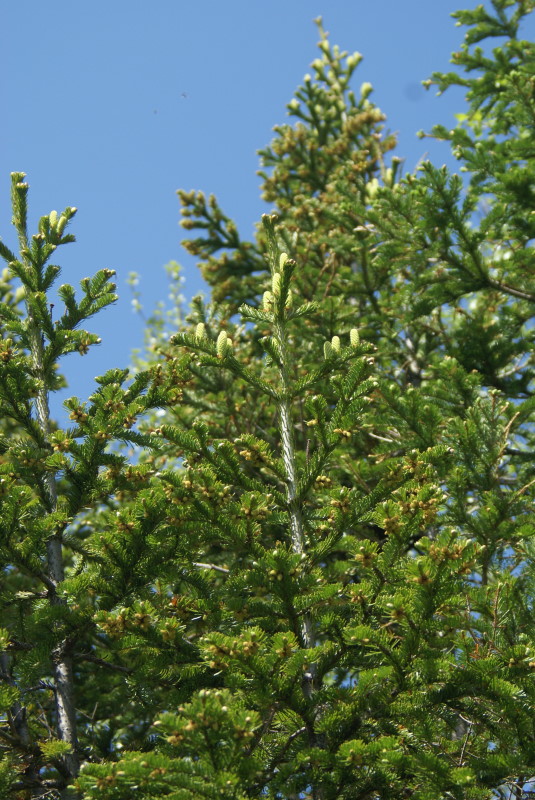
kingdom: Plantae
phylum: Tracheophyta
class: Pinopsida
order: Pinales
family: Pinaceae
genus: Abies
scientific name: Abies sibirica
